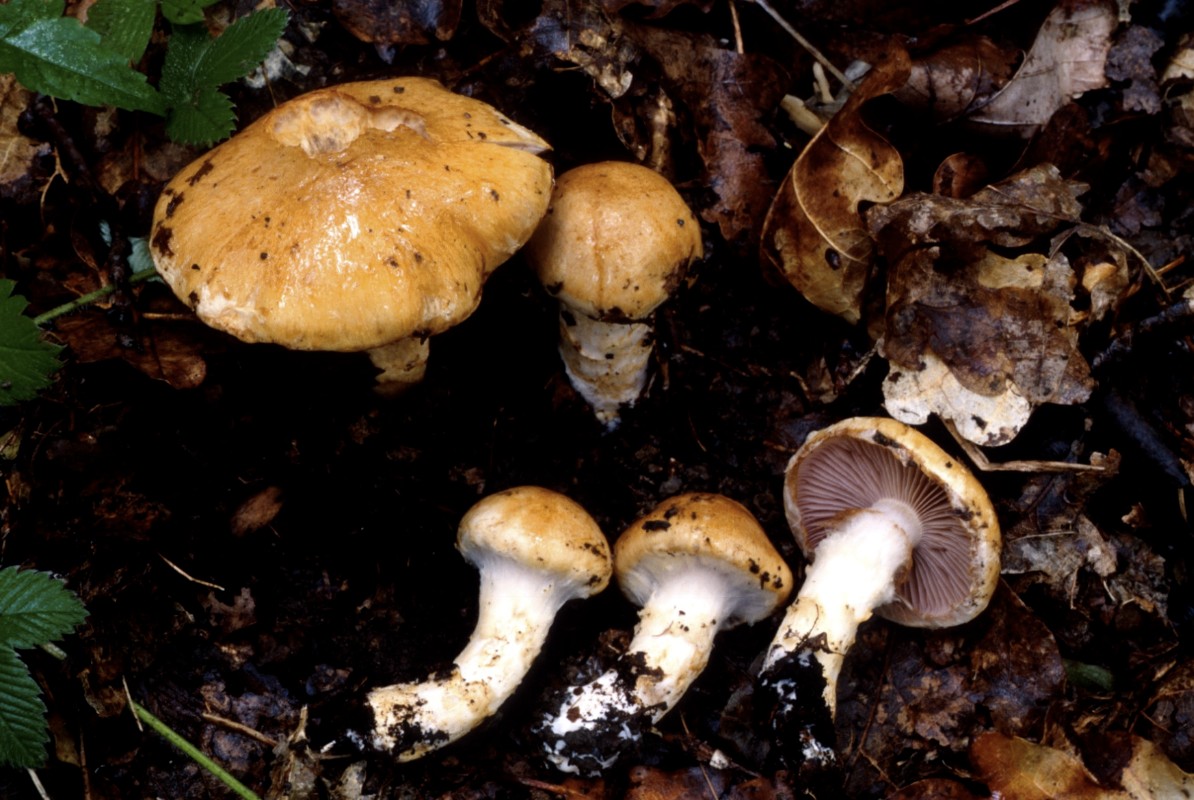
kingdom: Fungi
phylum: Basidiomycota
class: Agaricomycetes
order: Agaricales
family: Cortinariaceae
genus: Phlegmacium
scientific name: Phlegmacium tiliae
